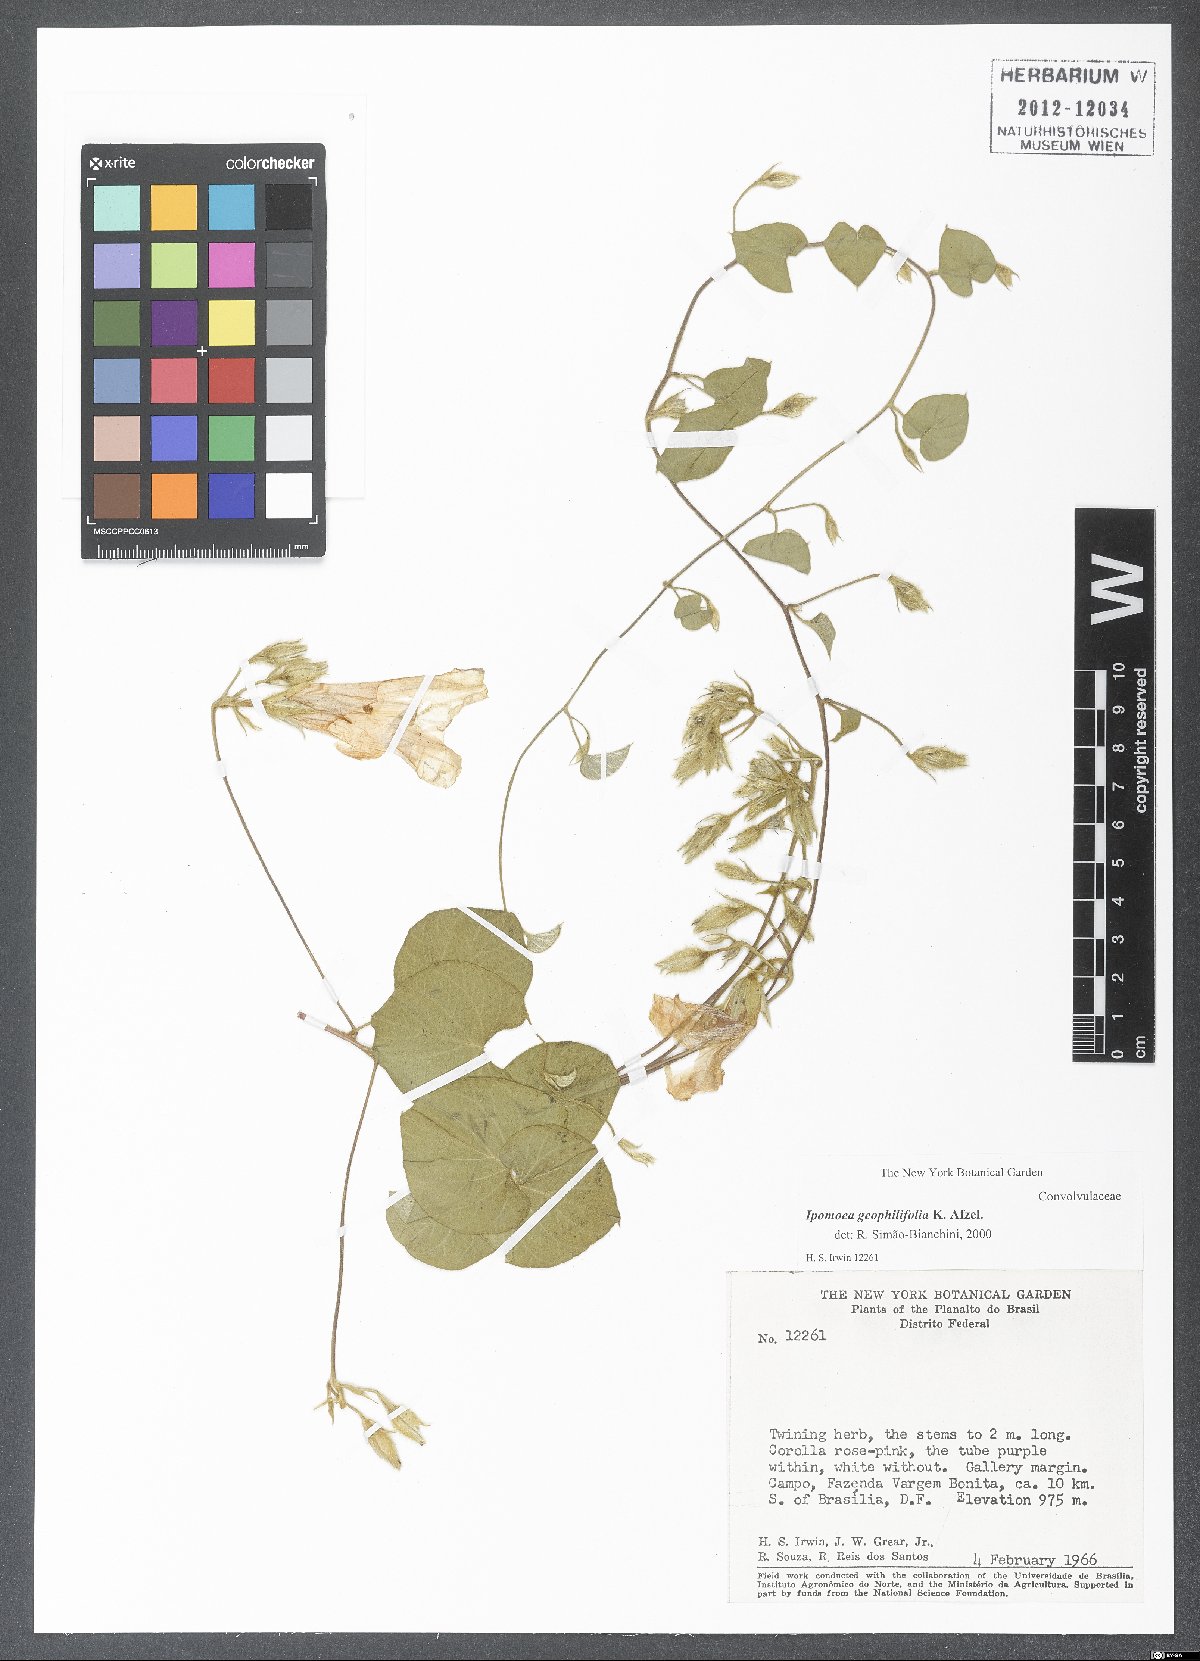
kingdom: Plantae
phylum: Tracheophyta
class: Magnoliopsida
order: Solanales
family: Convolvulaceae
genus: Ipomoea
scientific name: Ipomoea geophilifolia
